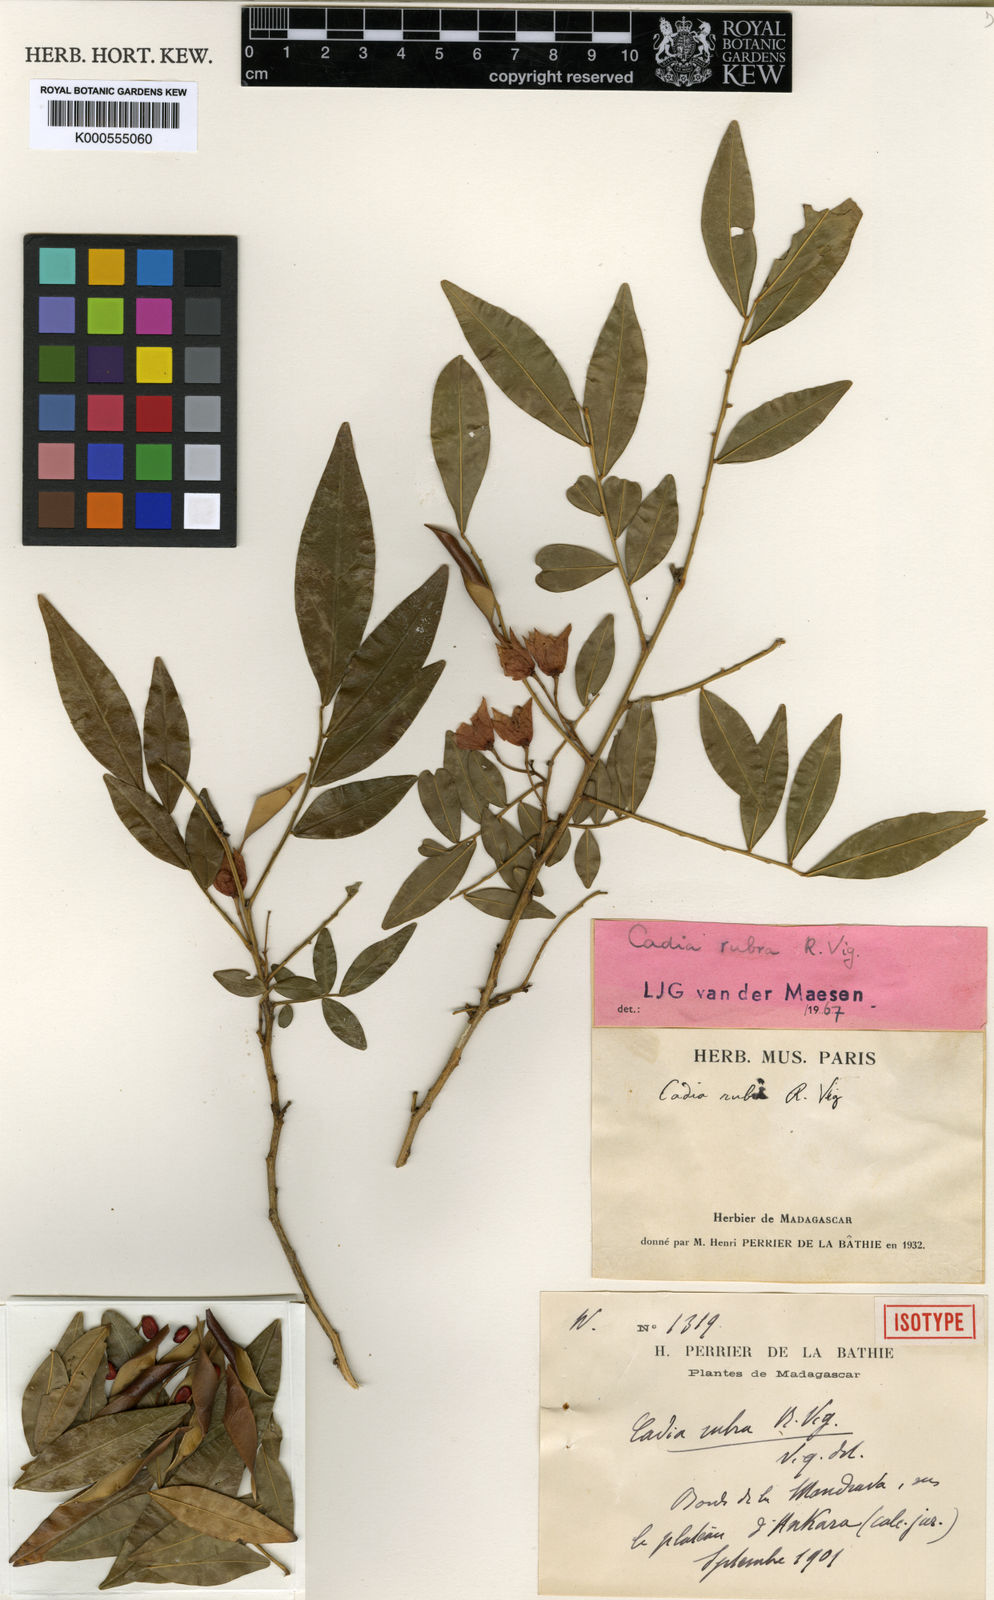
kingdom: Plantae
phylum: Tracheophyta
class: Magnoliopsida
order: Fabales
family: Fabaceae
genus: Cadia
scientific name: Cadia rubra
